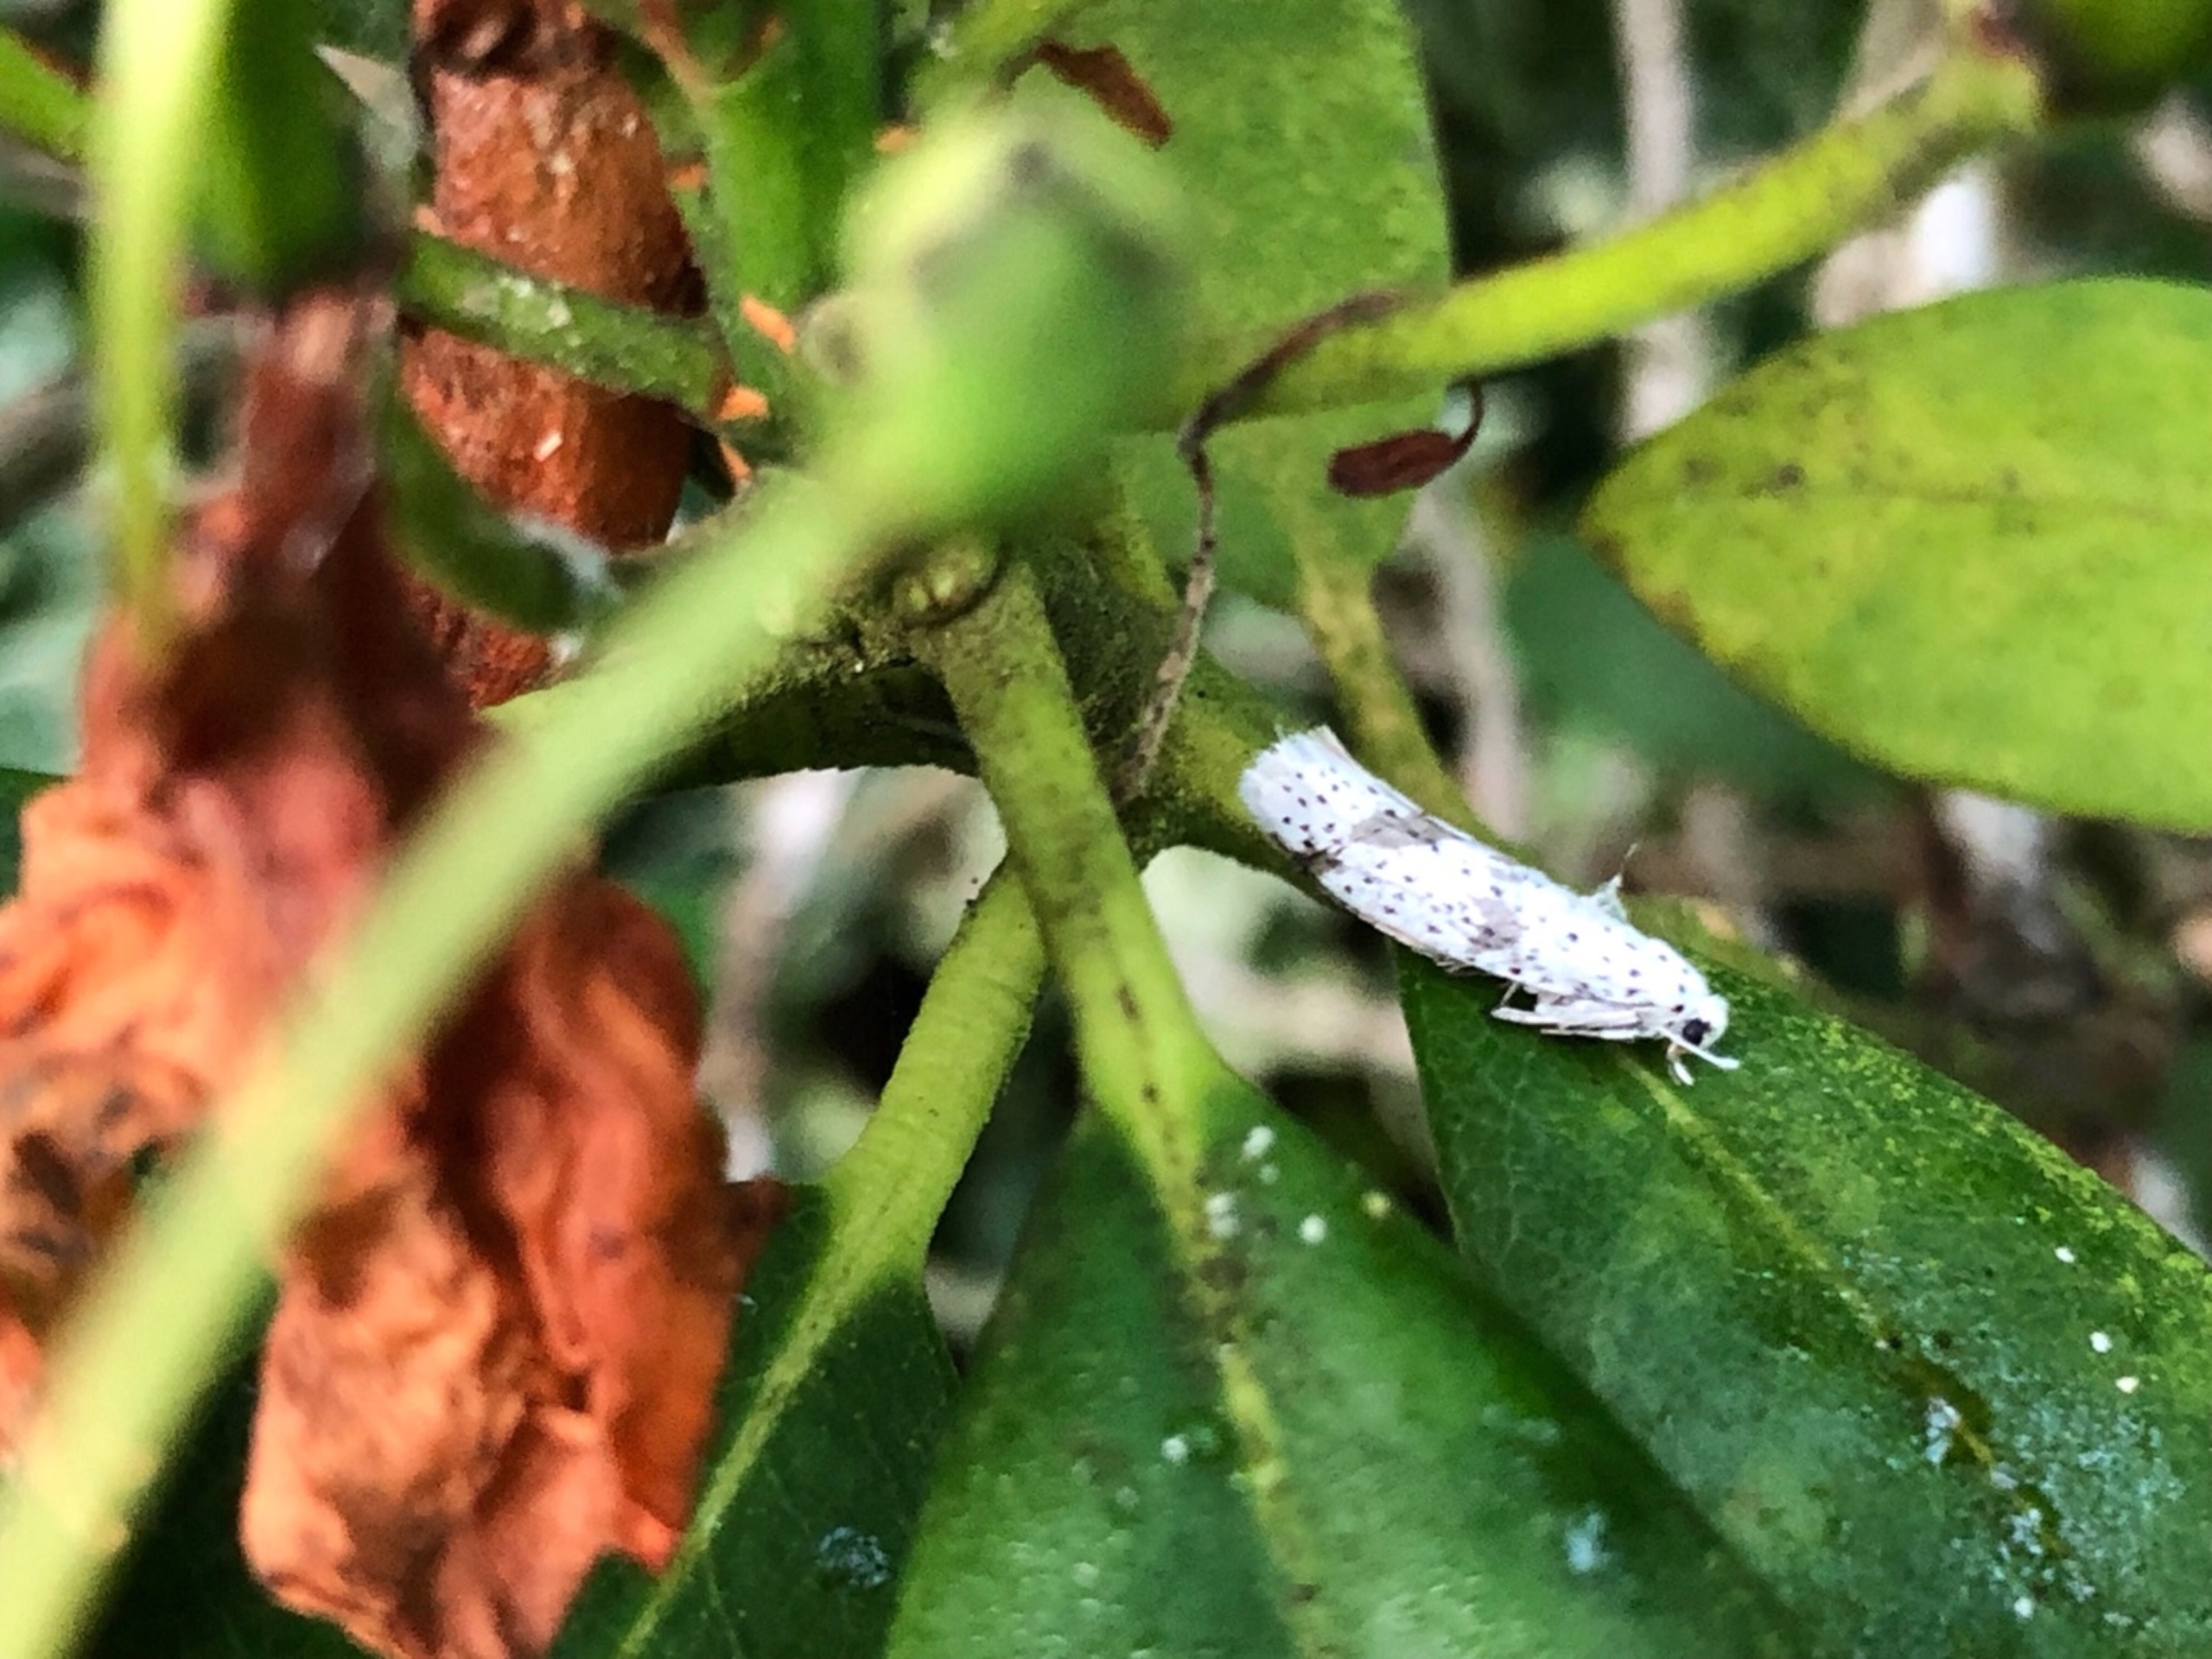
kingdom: Animalia
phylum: Arthropoda
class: Insecta
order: Lepidoptera
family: Yponomeutidae
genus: Yponomeuta
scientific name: Yponomeuta evonymella
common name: Hægspindemøl
